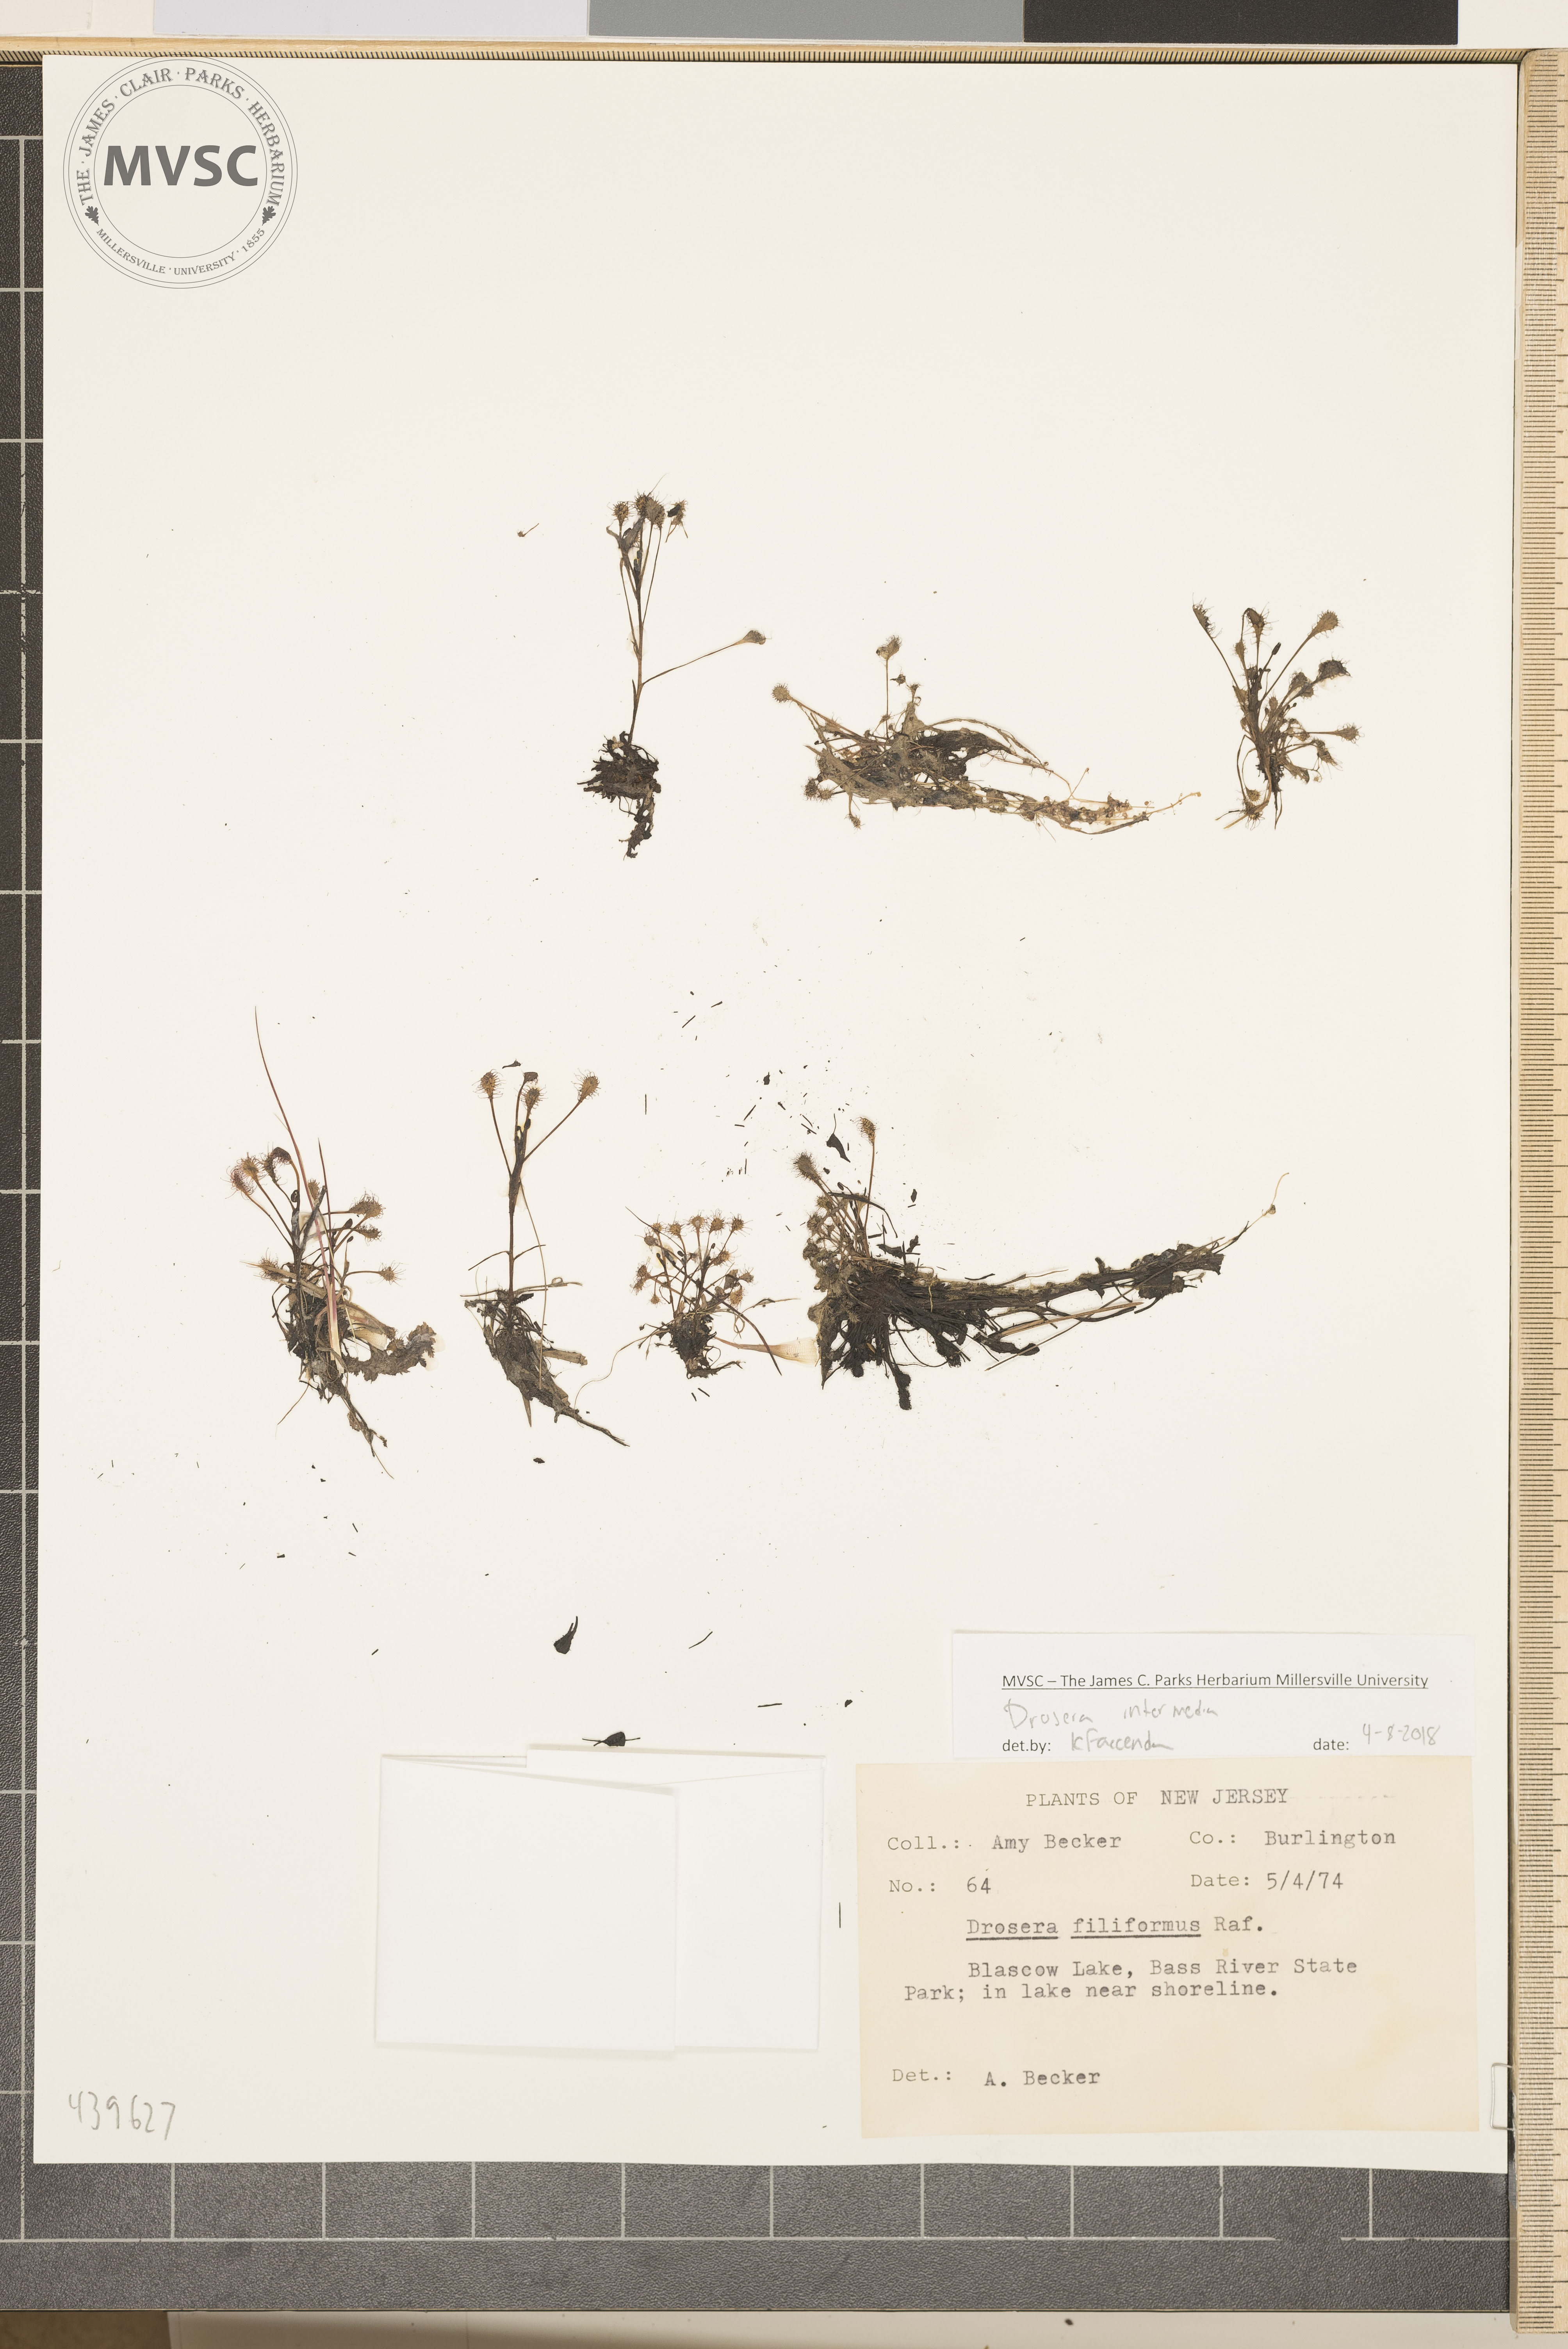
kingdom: Plantae
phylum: Tracheophyta
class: Magnoliopsida
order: Caryophyllales
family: Droseraceae
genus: Drosera
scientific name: Drosera intermedia
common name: Oblong-leaved sundew
